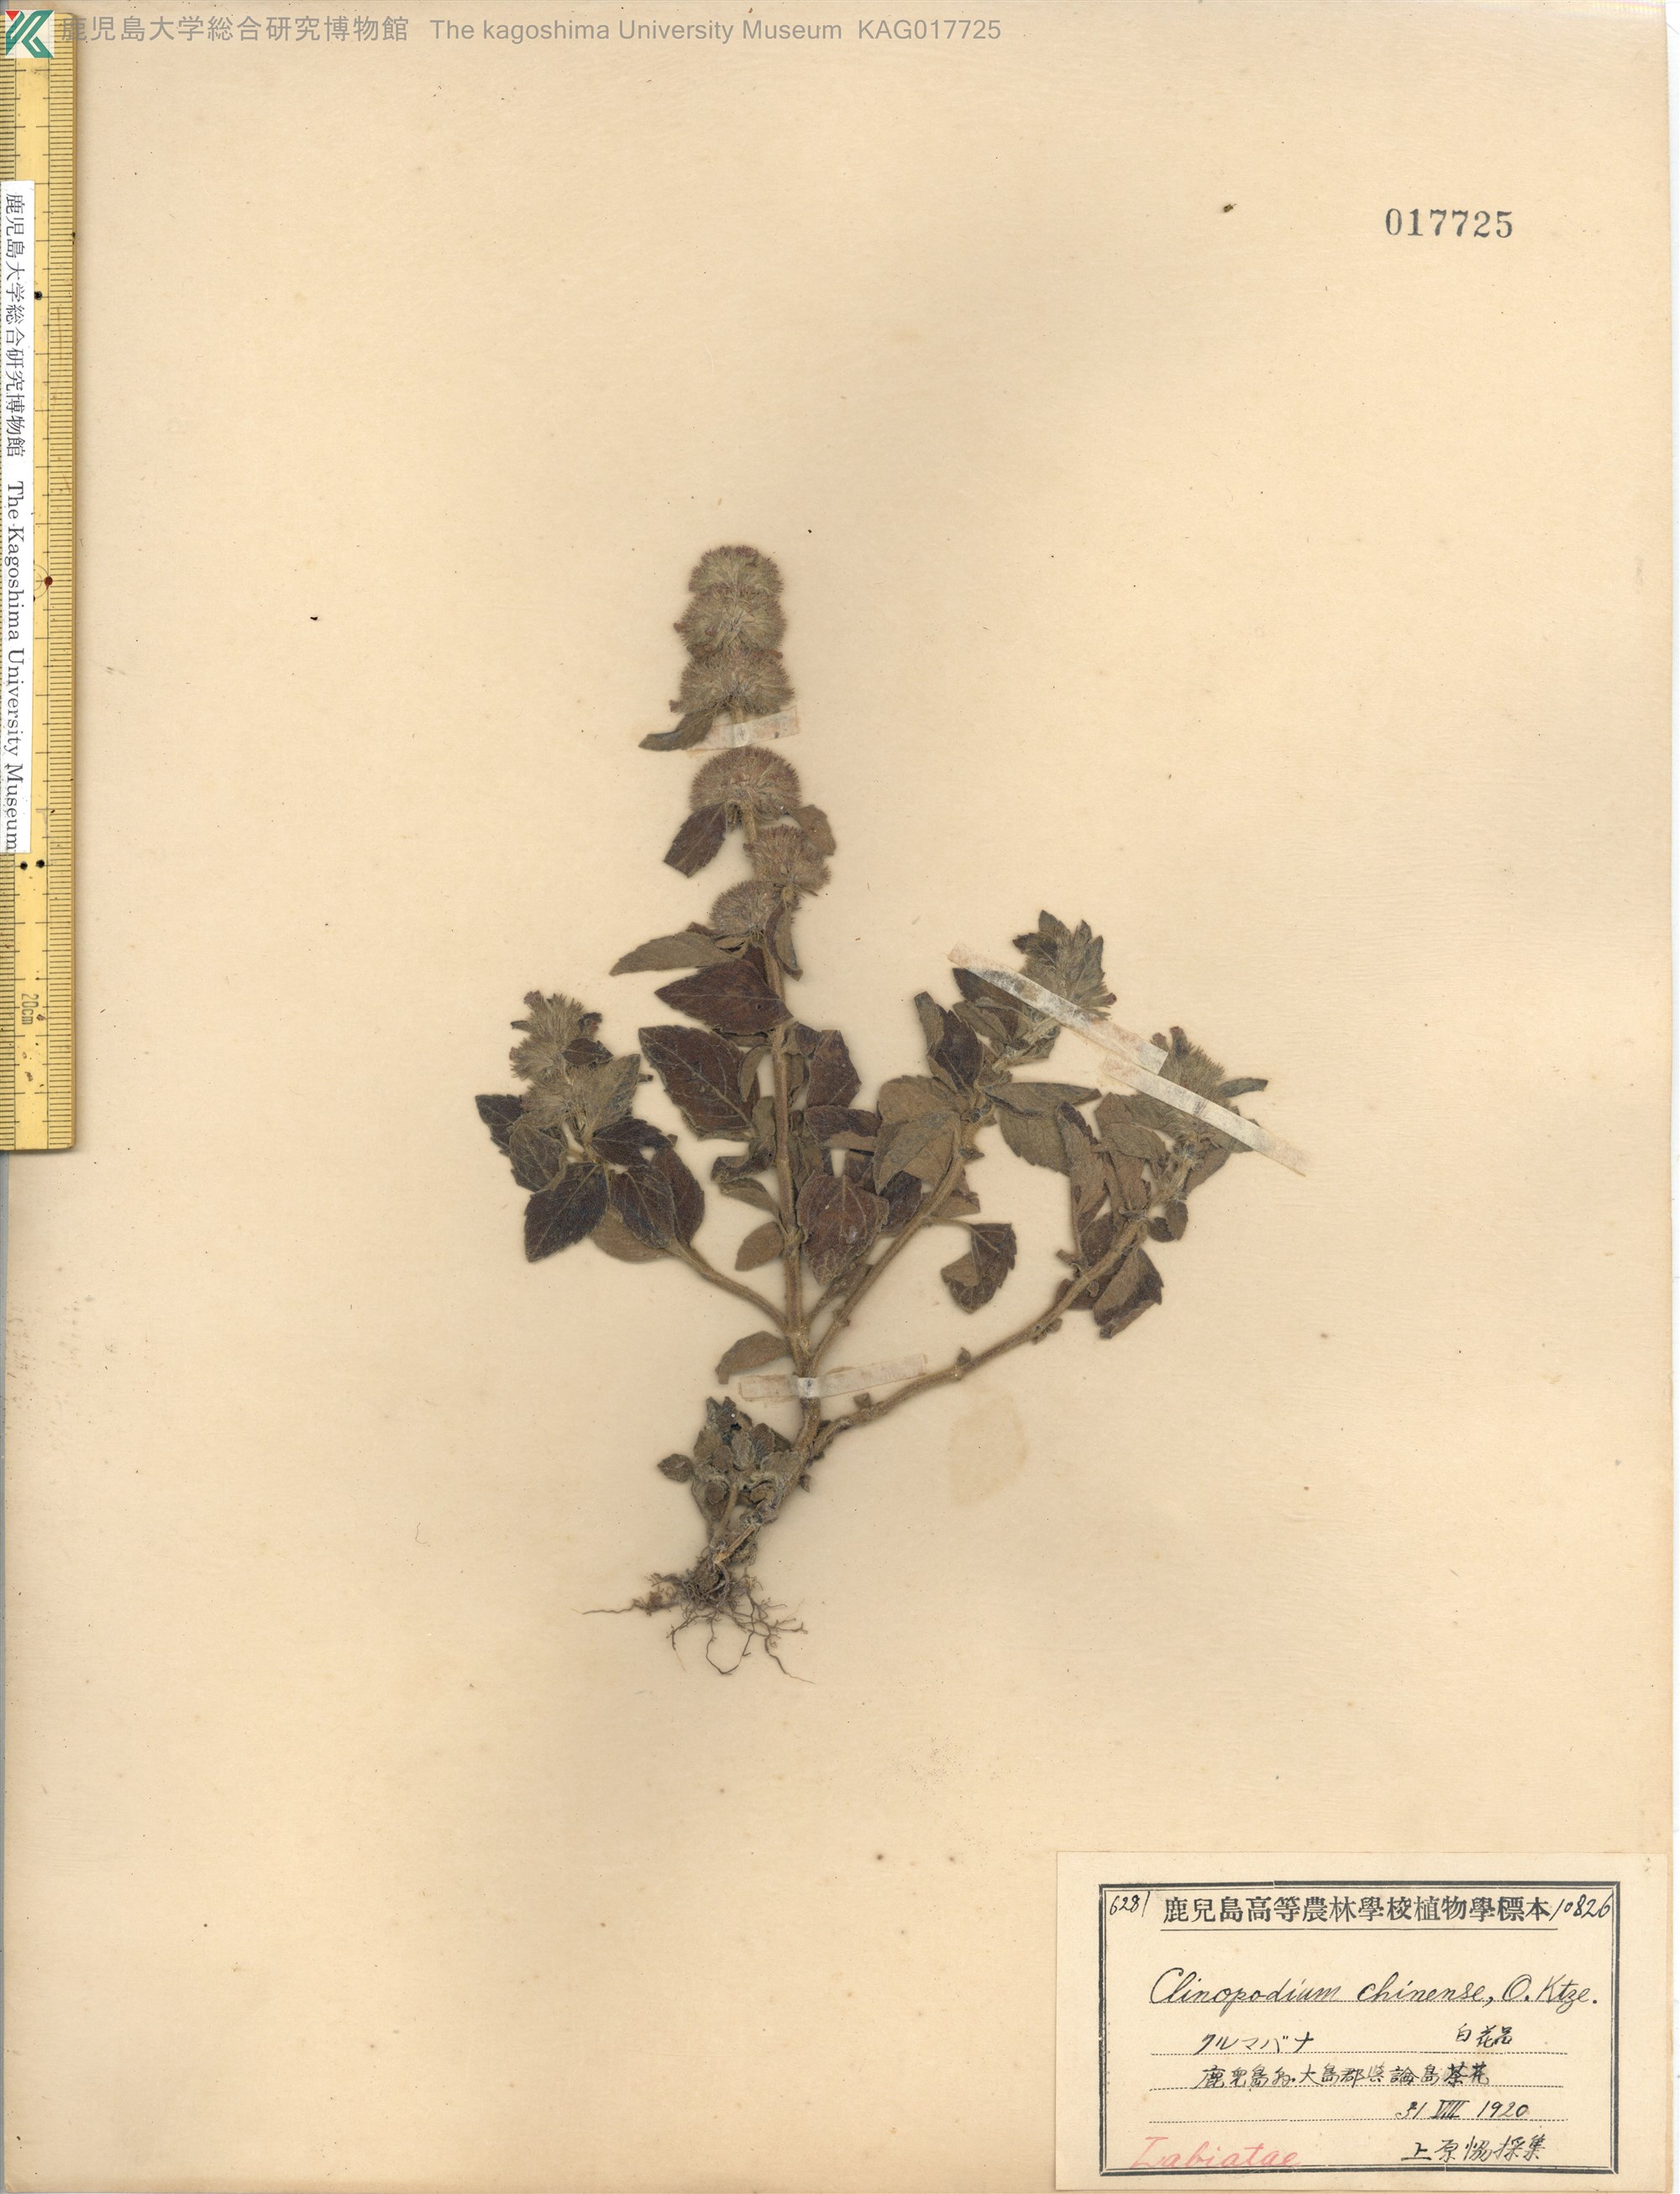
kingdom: Plantae
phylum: Tracheophyta
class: Magnoliopsida
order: Lamiales
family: Lamiaceae
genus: Clinopodium
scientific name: Clinopodium chinense
